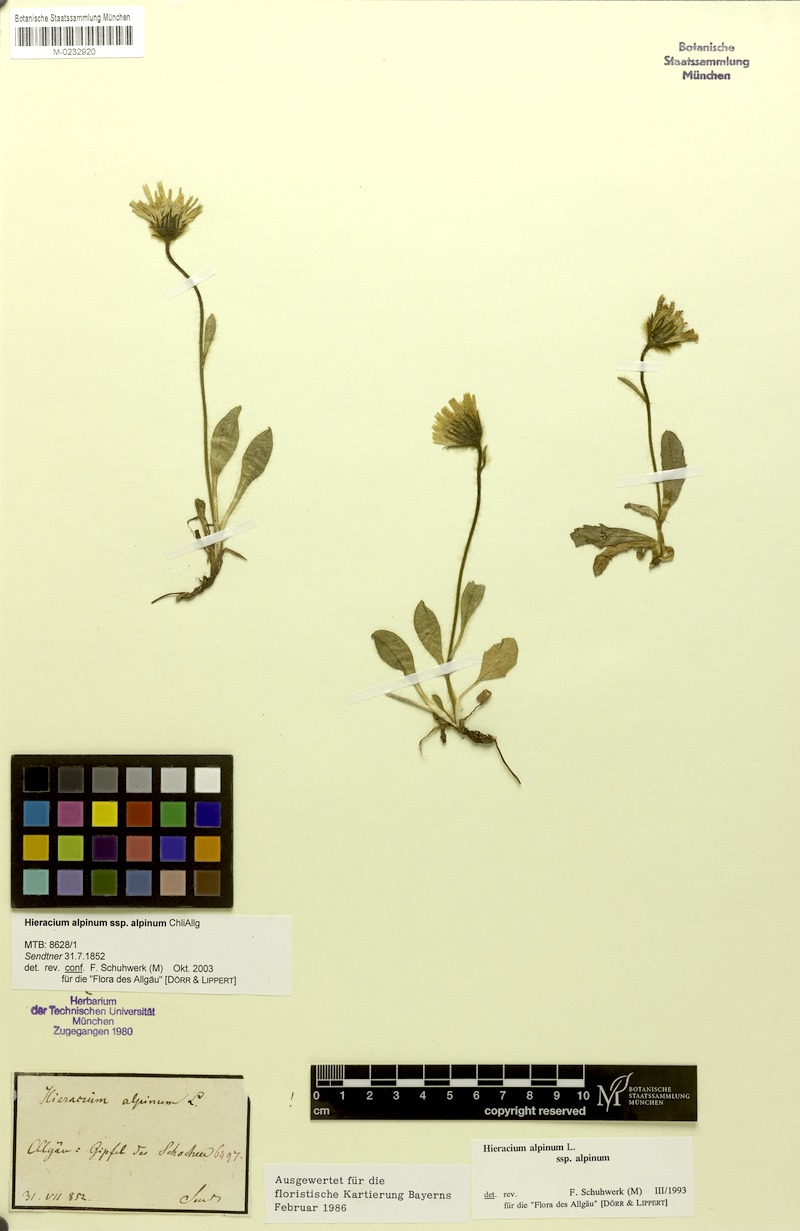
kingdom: Plantae
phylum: Tracheophyta
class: Magnoliopsida
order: Asterales
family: Asteraceae
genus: Hieracium
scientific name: Hieracium amplexicaule
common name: Sticky hawkweed
